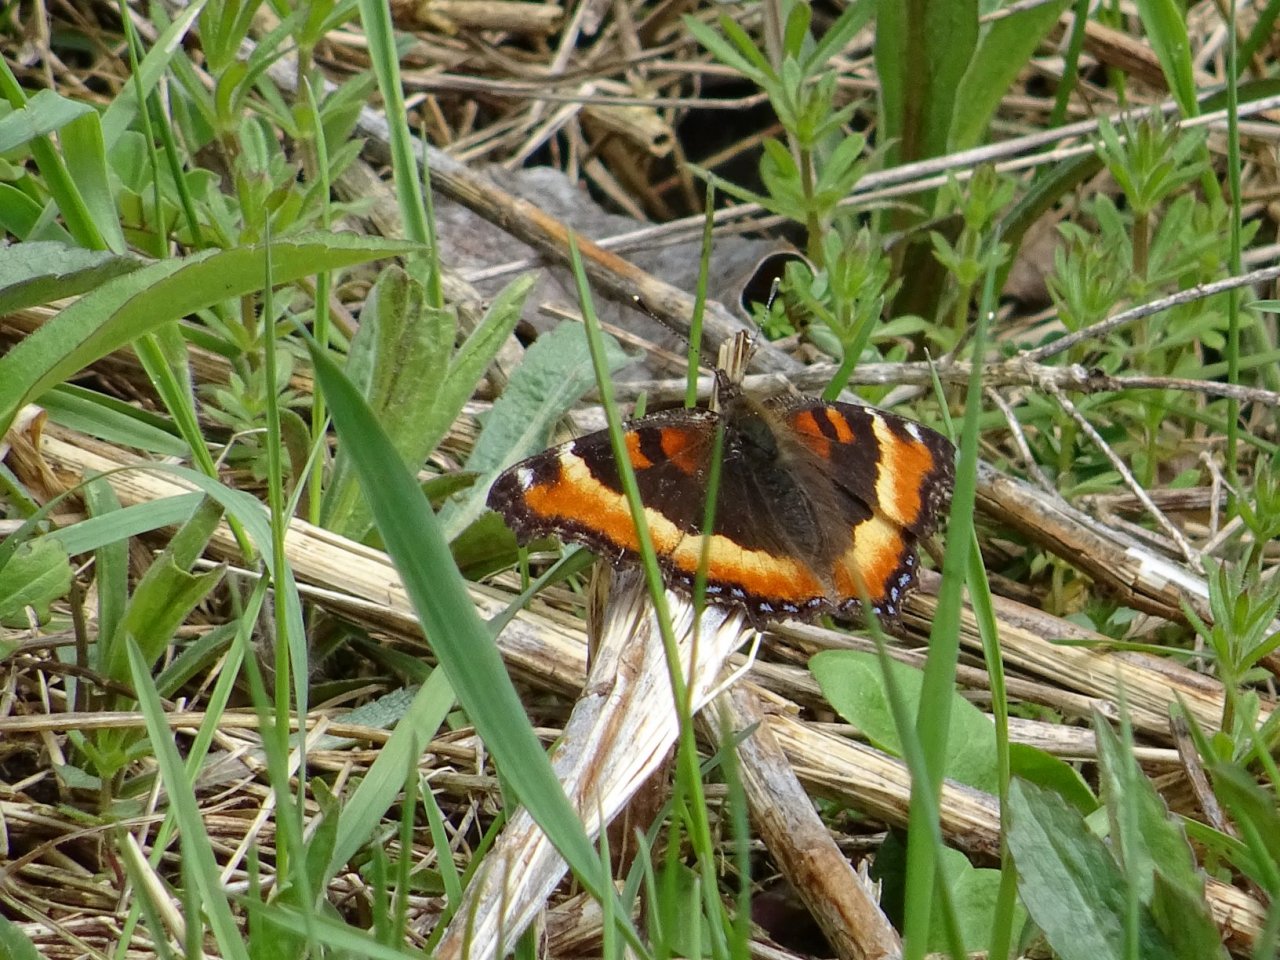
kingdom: Animalia
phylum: Arthropoda
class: Insecta
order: Lepidoptera
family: Nymphalidae
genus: Aglais
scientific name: Aglais milberti
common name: Milbert's Tortoiseshell
